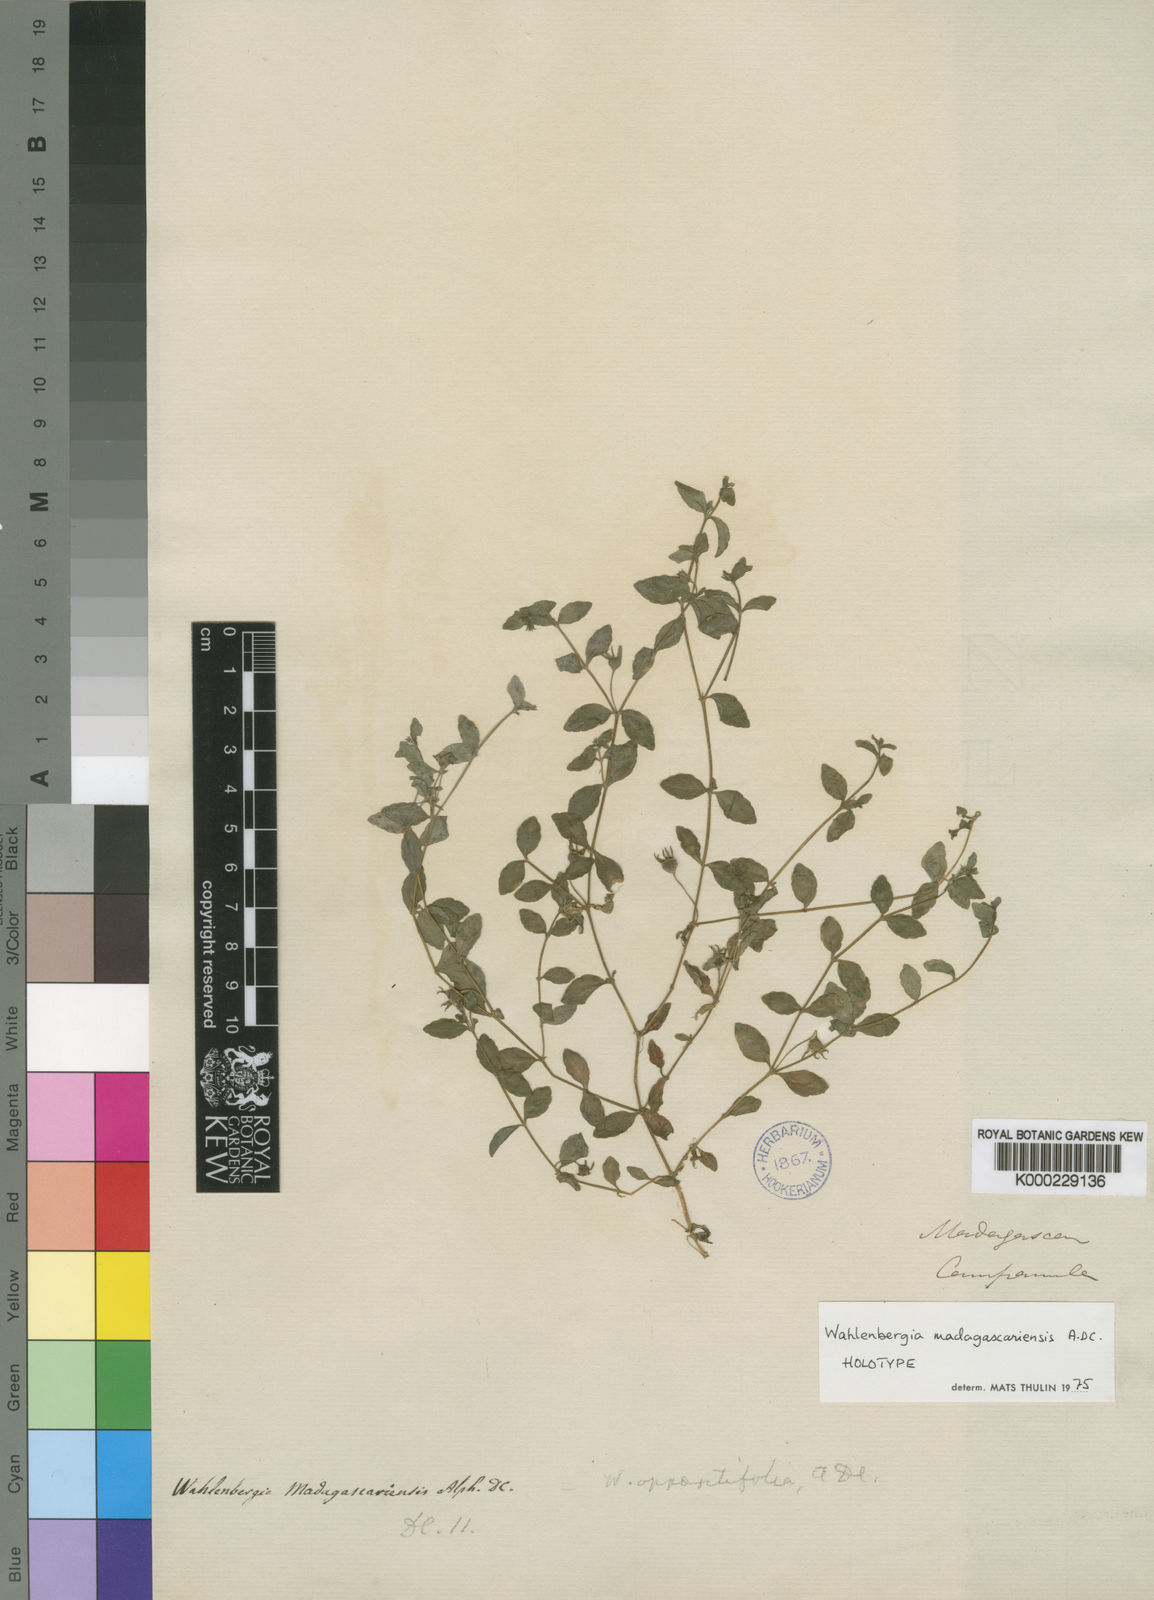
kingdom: Plantae
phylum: Tracheophyta
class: Magnoliopsida
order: Asterales
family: Campanulaceae
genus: Wahlenbergia
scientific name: Wahlenbergia madagascariensis
